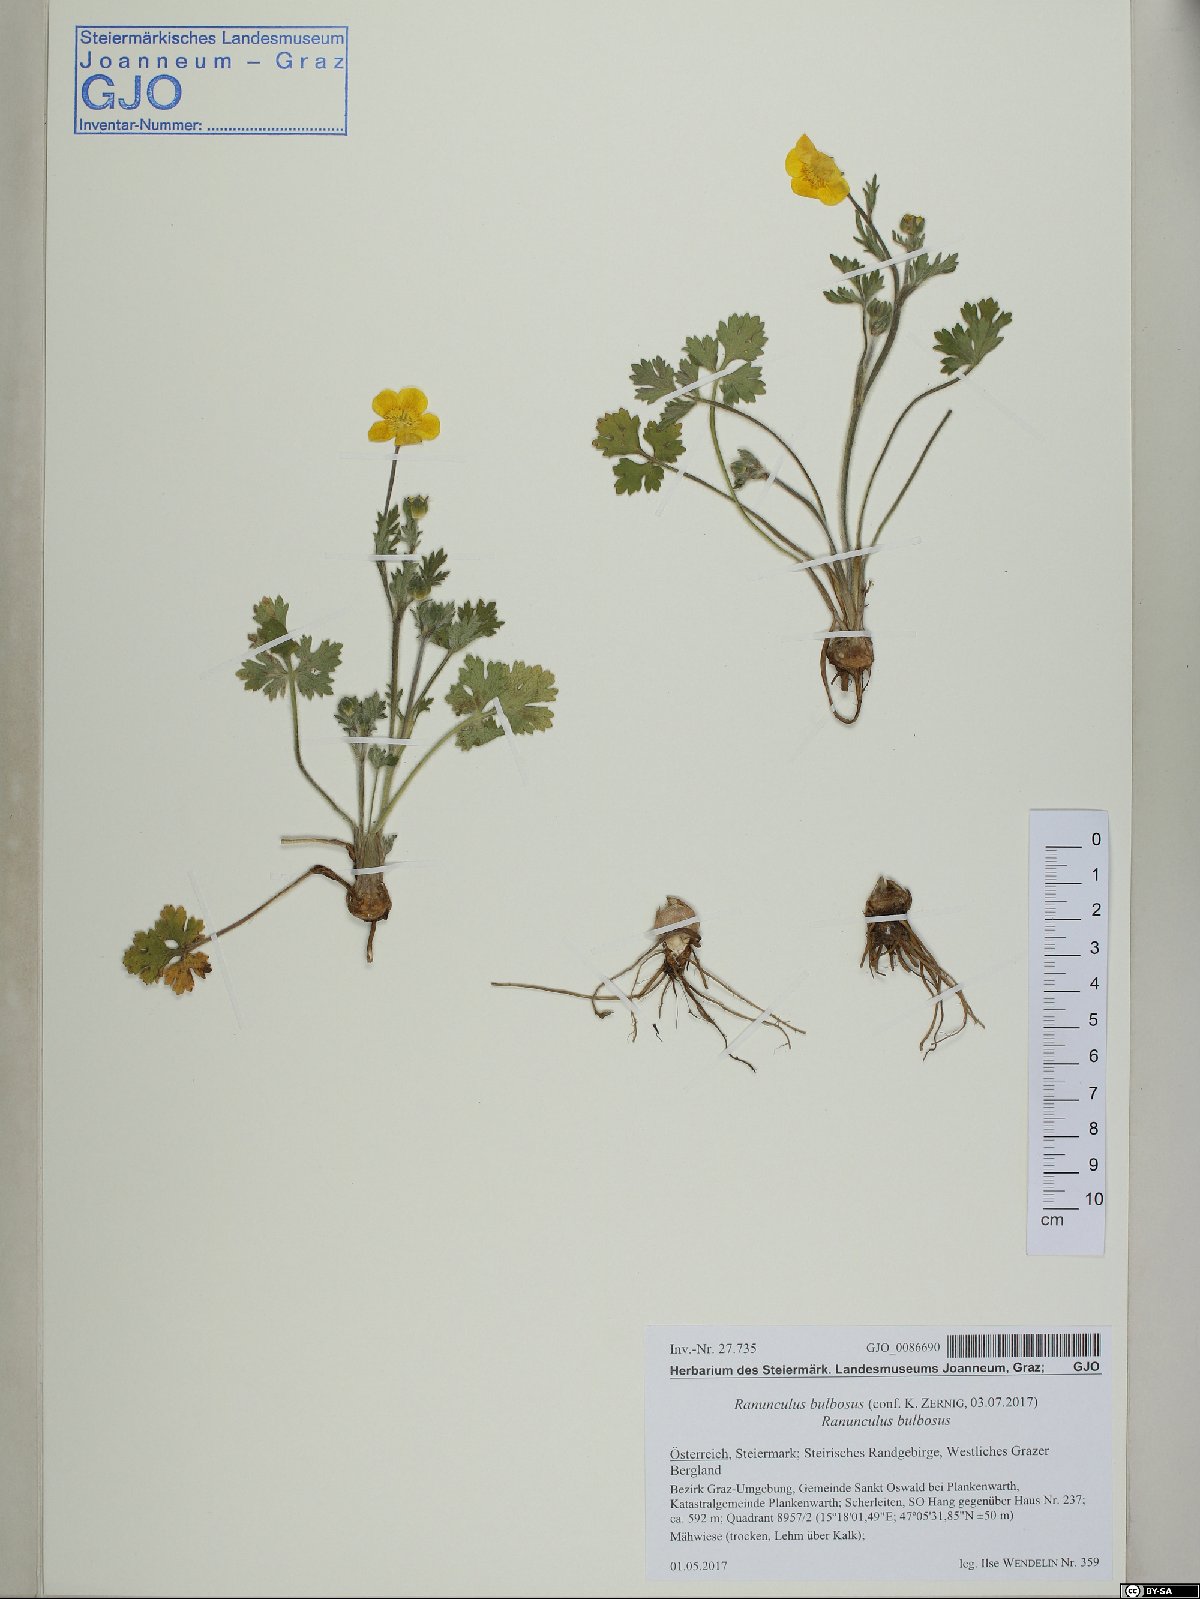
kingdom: Plantae
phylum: Tracheophyta
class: Magnoliopsida
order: Ranunculales
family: Ranunculaceae
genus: Ranunculus
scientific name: Ranunculus bulbosus
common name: Bulbous buttercup
